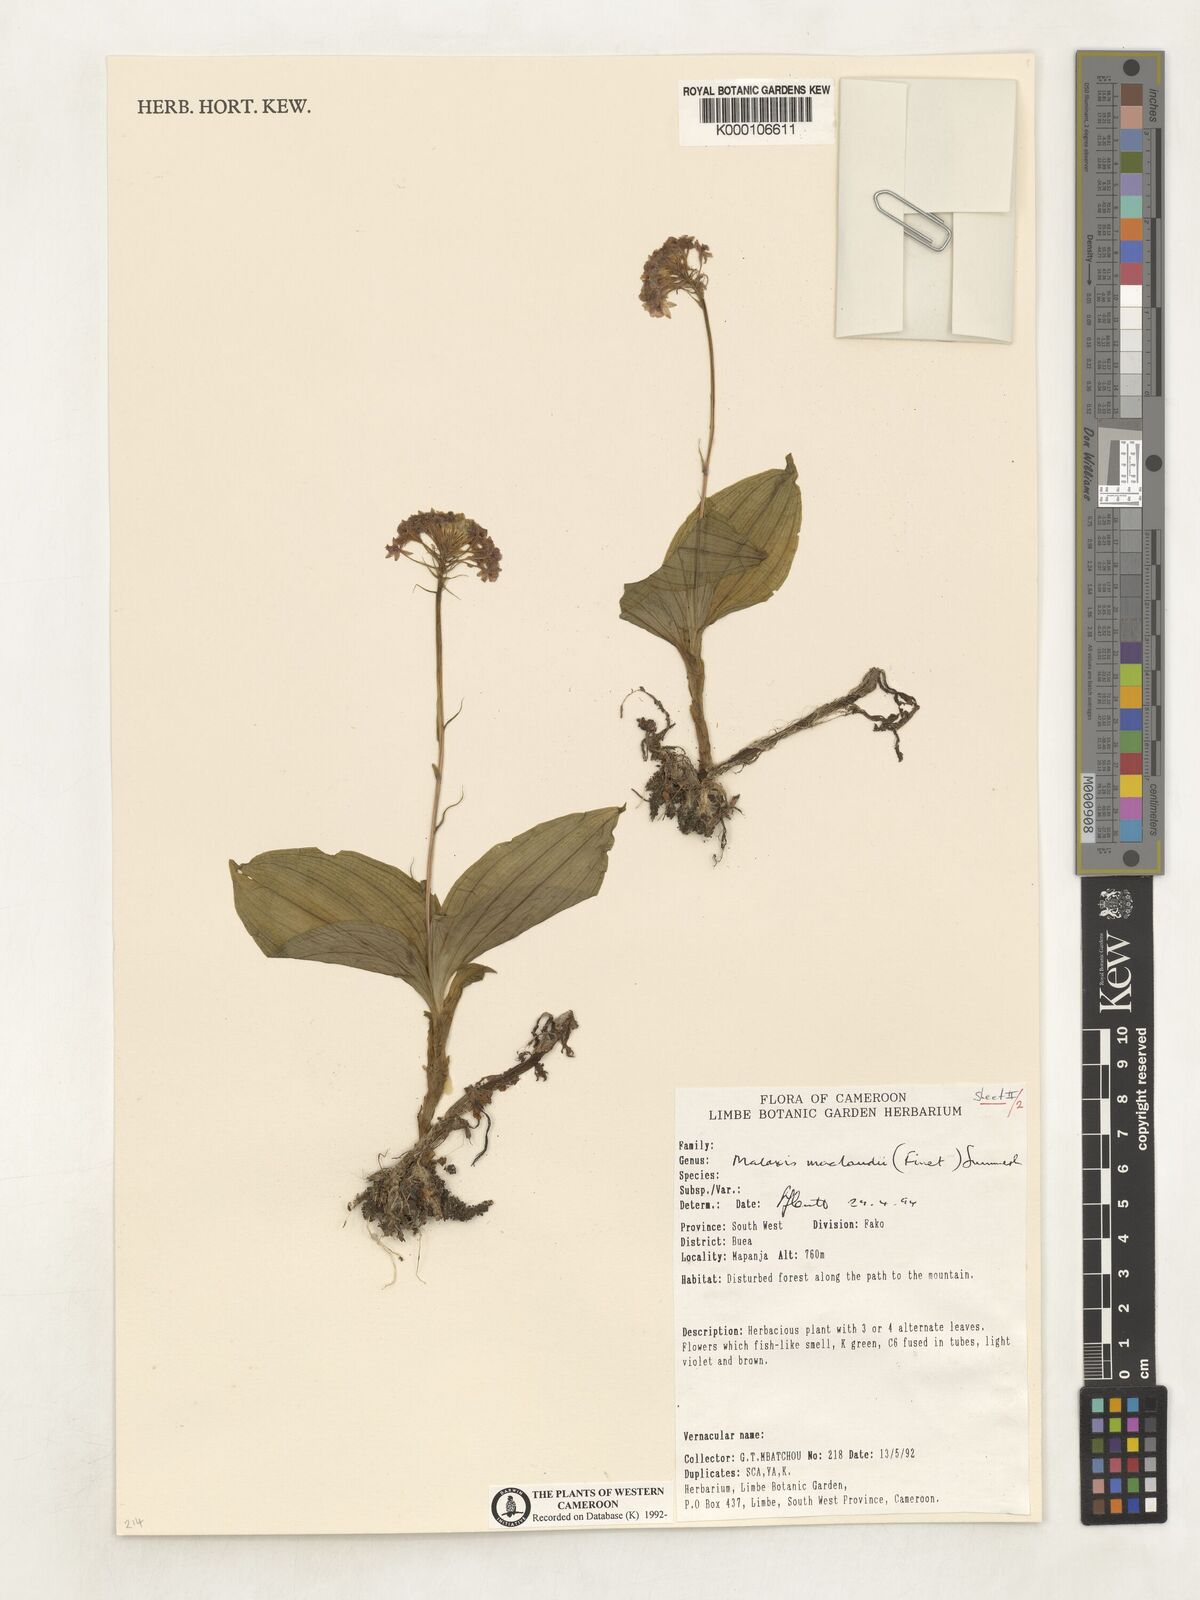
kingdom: Plantae
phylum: Tracheophyta
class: Liliopsida
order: Asparagales
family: Orchidaceae
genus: Malaxis
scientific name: Malaxis maclaudii
